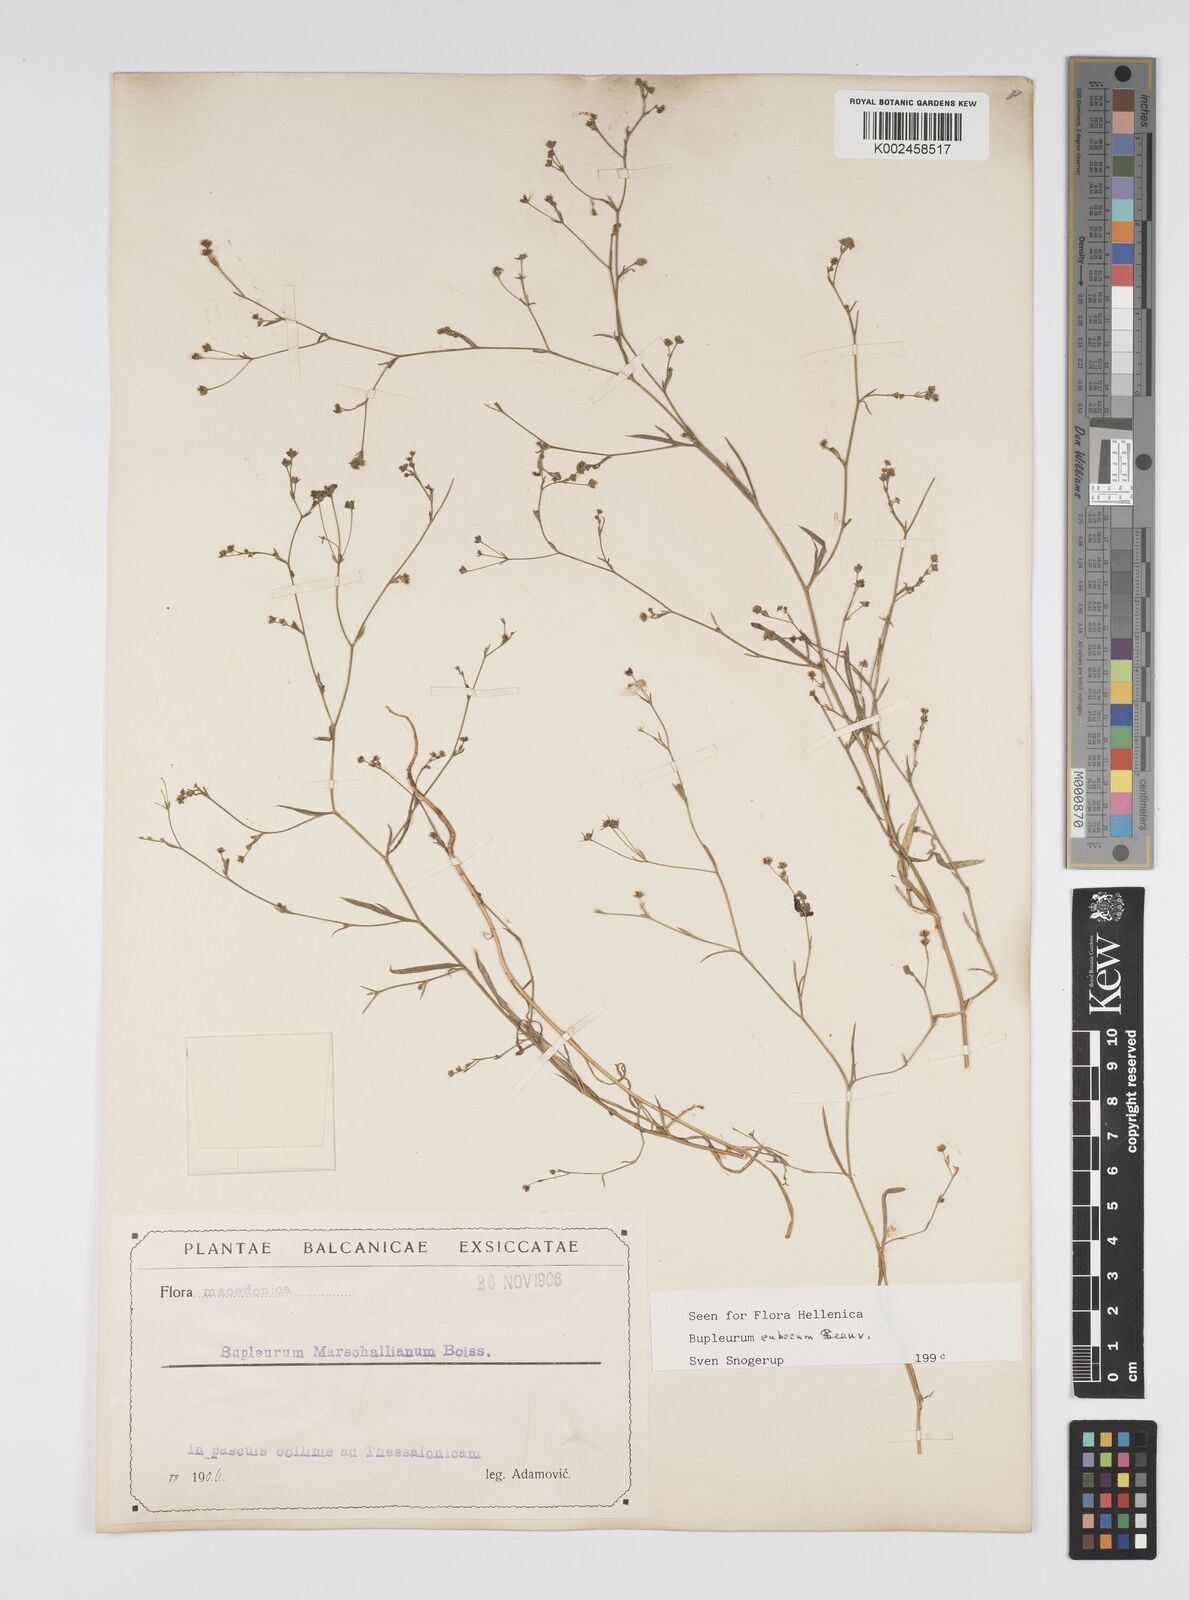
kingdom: Plantae
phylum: Tracheophyta
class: Magnoliopsida
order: Apiales
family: Apiaceae
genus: Bupleurum
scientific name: Bupleurum tenuissimum
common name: Slender hare's-ear
